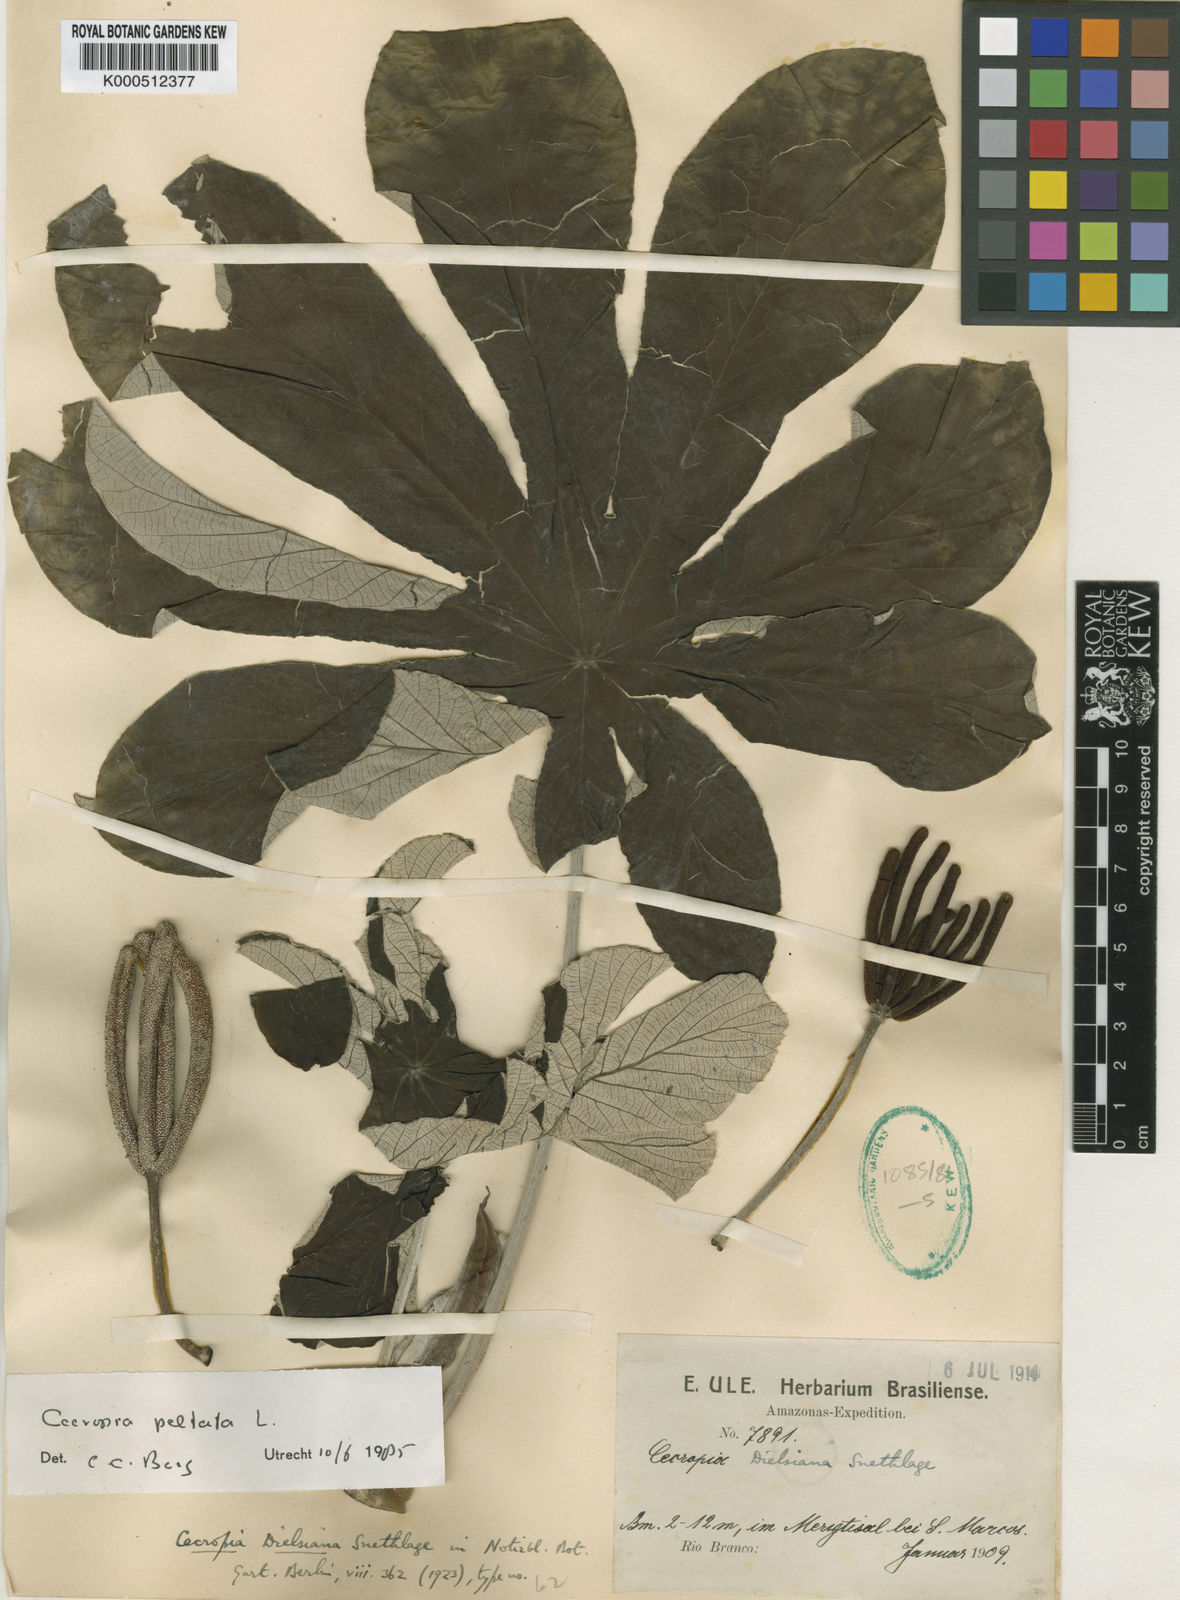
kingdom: Plantae
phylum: Tracheophyta
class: Magnoliopsida
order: Rosales
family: Urticaceae
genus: Cecropia
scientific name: Cecropia peltata
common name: Trumpet-tree
